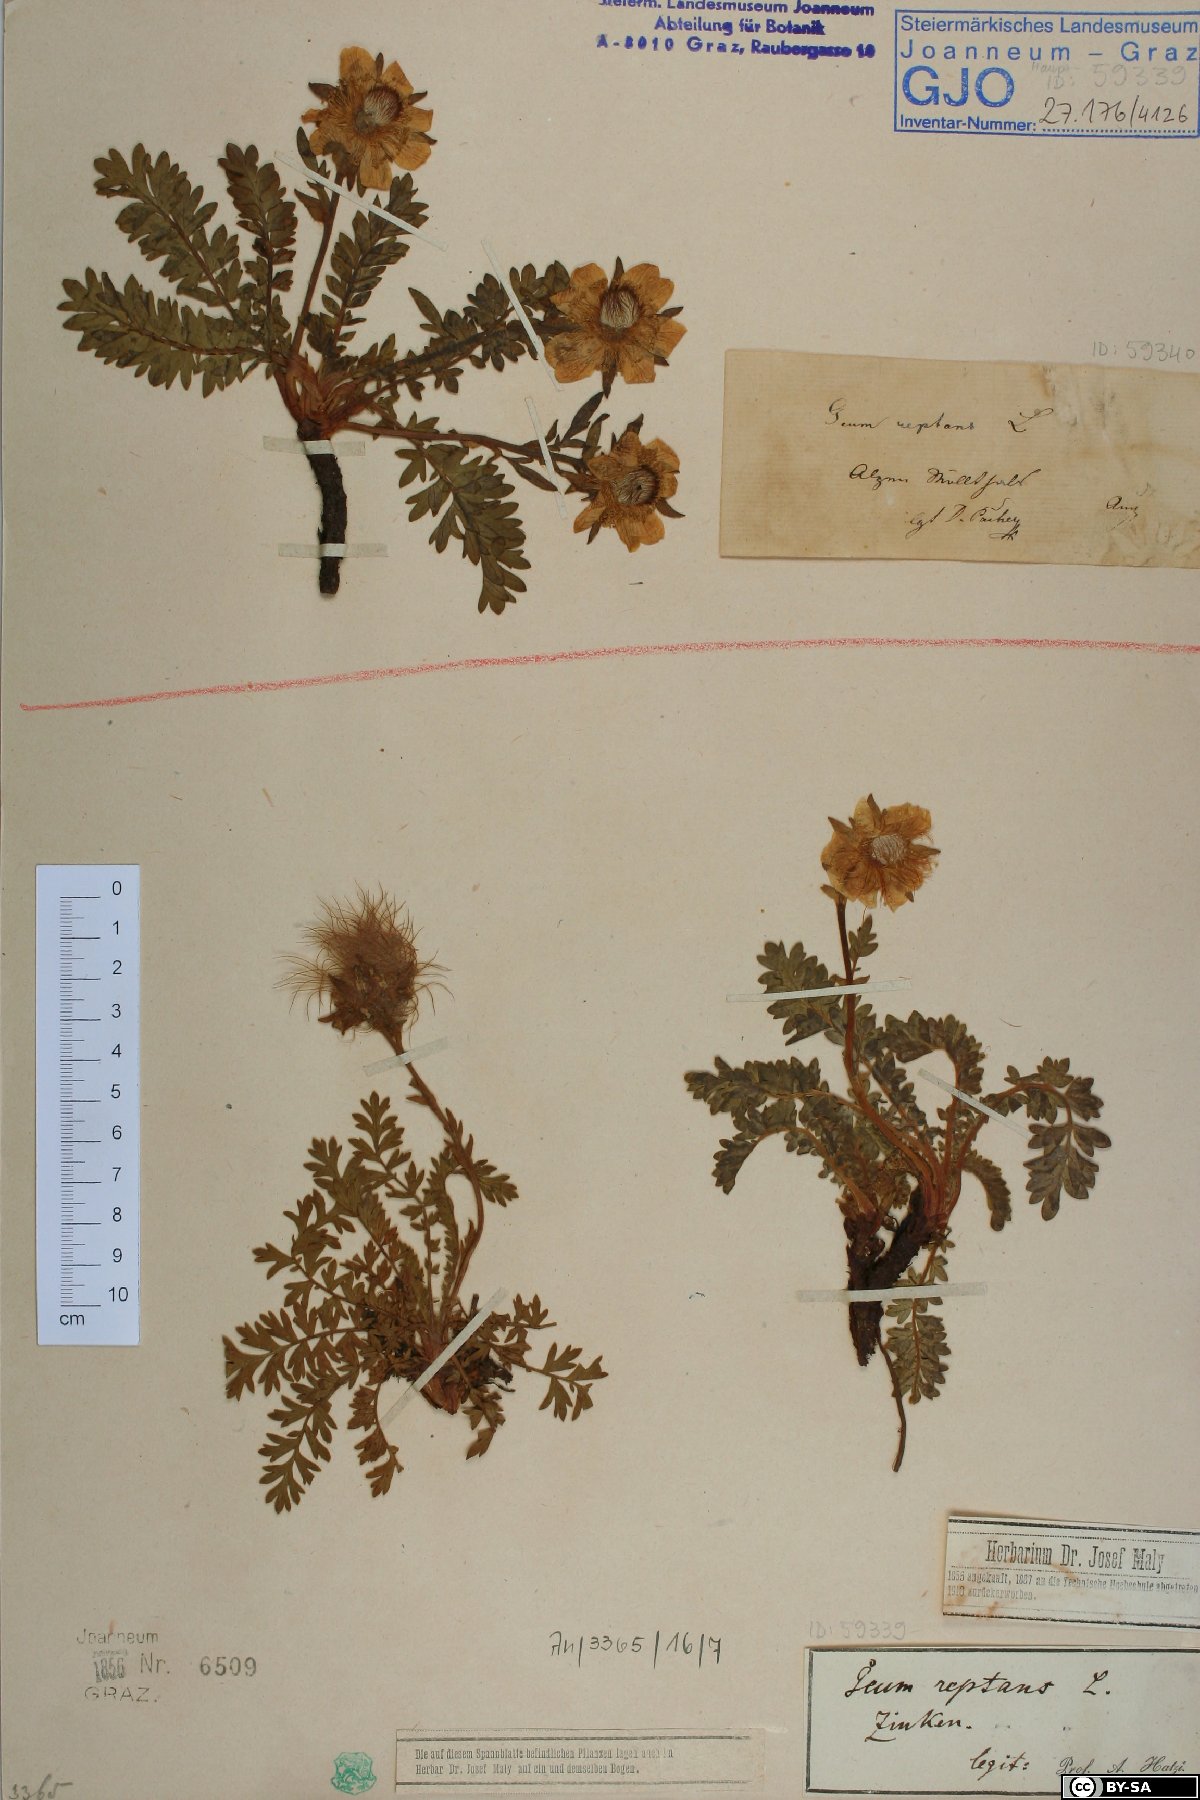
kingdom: Plantae
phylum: Tracheophyta
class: Magnoliopsida
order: Rosales
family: Rosaceae
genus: Geum
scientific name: Geum reptans
